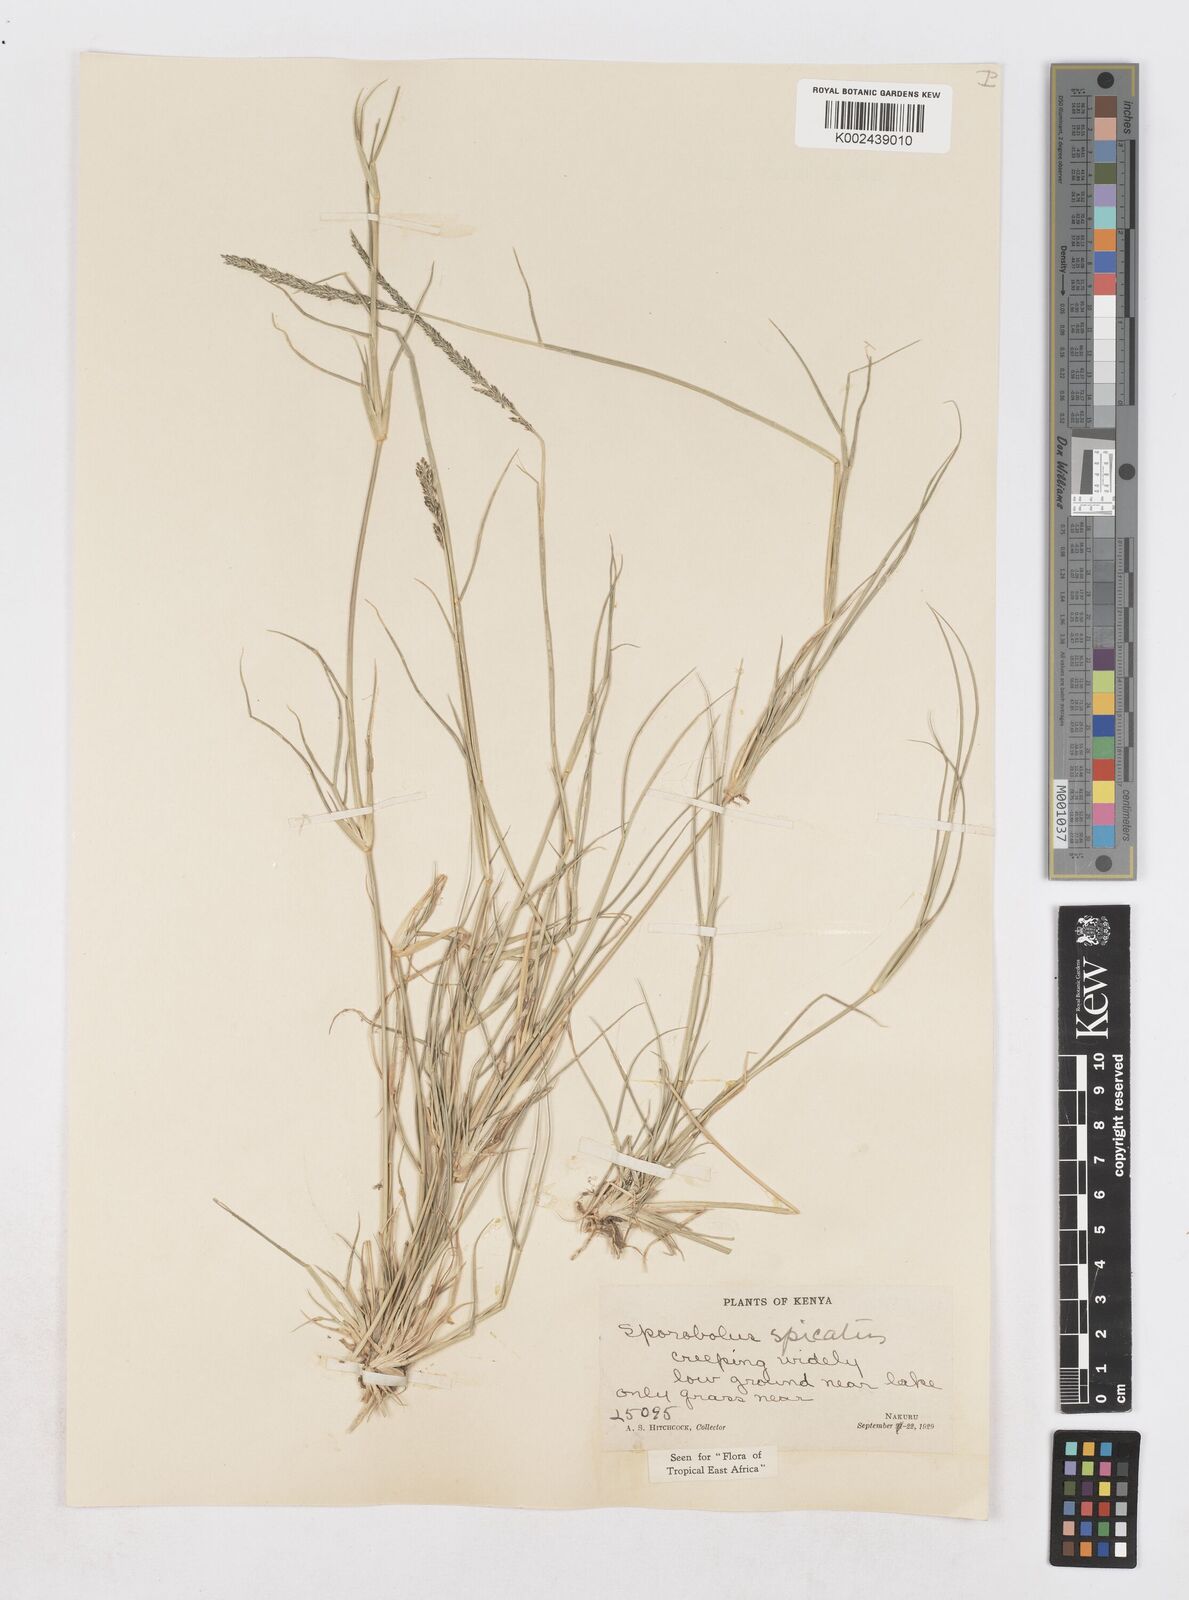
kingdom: Plantae
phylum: Tracheophyta
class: Liliopsida
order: Poales
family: Poaceae
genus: Sporobolus
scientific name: Sporobolus spicatus
